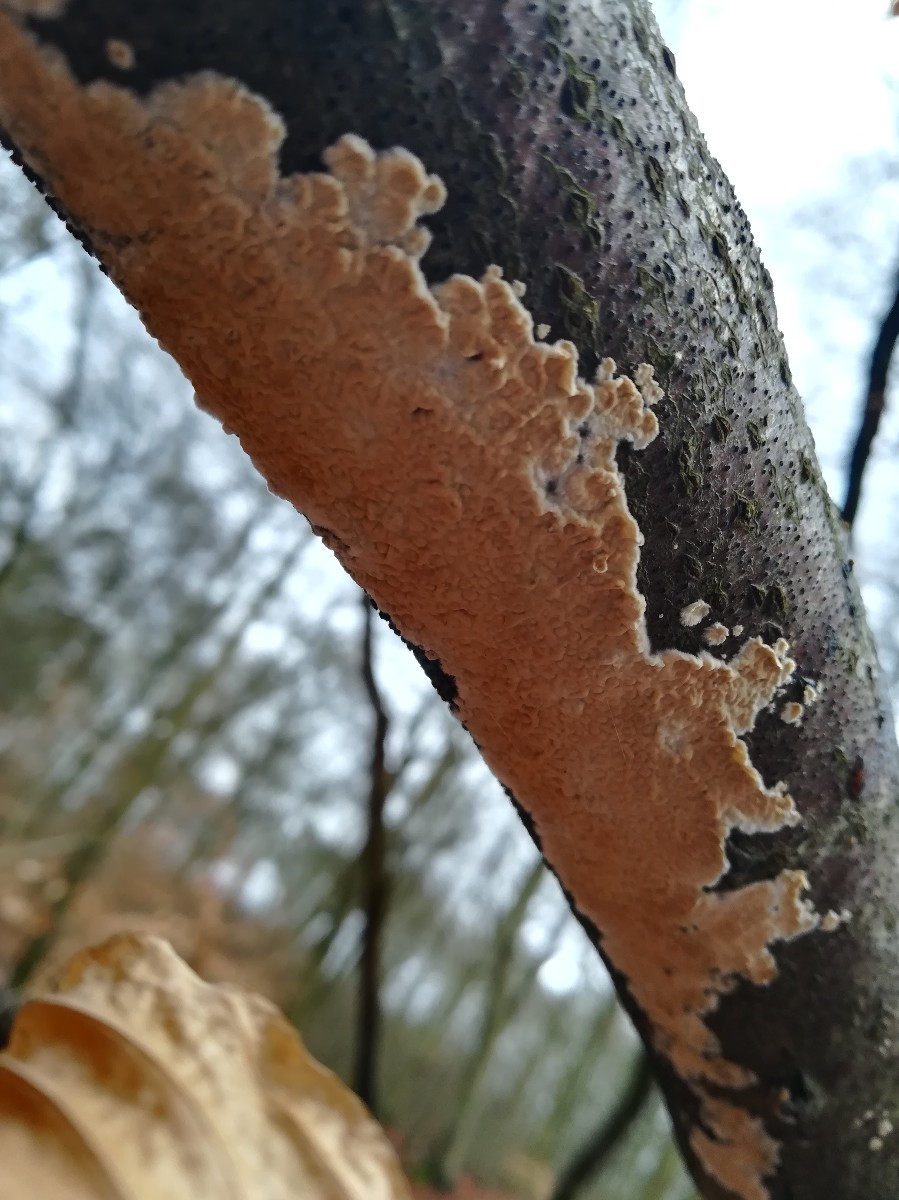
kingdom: Fungi
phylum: Basidiomycota
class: Agaricomycetes
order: Agaricales
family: Physalacriaceae
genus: Cylindrobasidium
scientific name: Cylindrobasidium evolvens
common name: sprækkehinde
